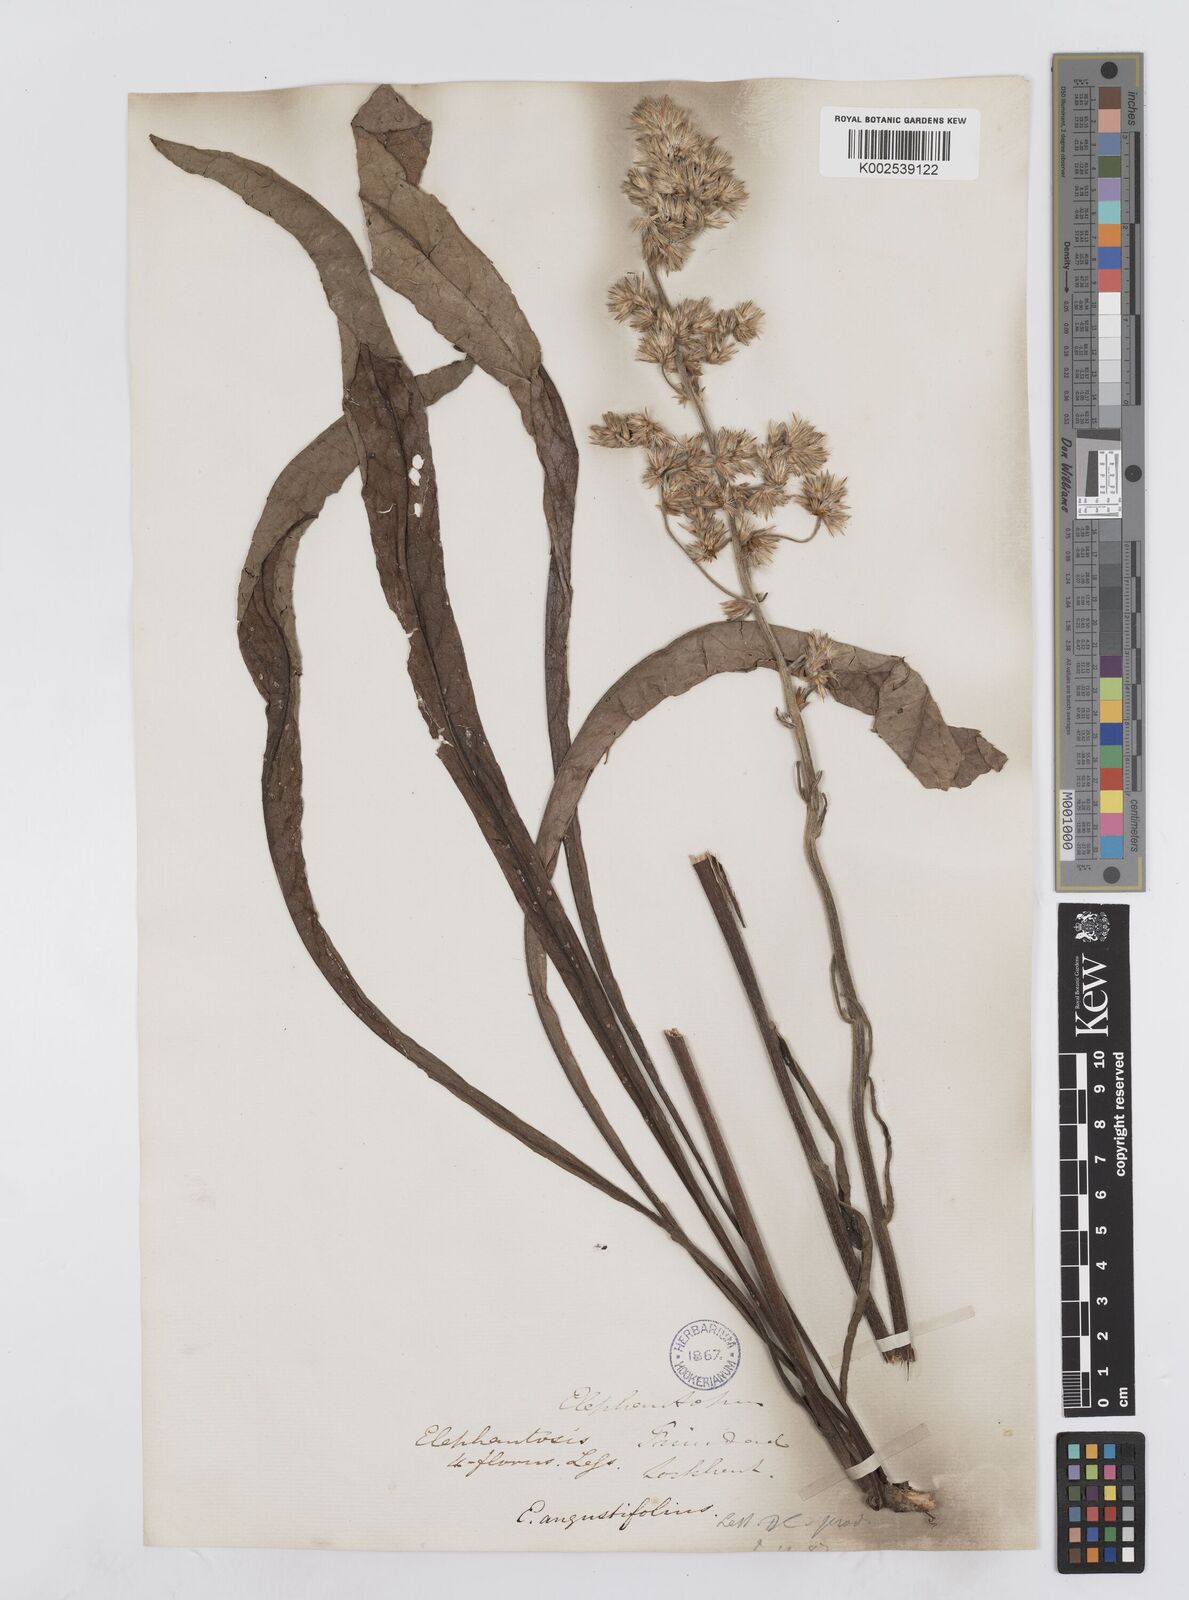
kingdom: Plantae
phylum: Tracheophyta
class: Magnoliopsida
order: Asterales
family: Asteraceae
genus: Orthopappus
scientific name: Orthopappus angustifolius
